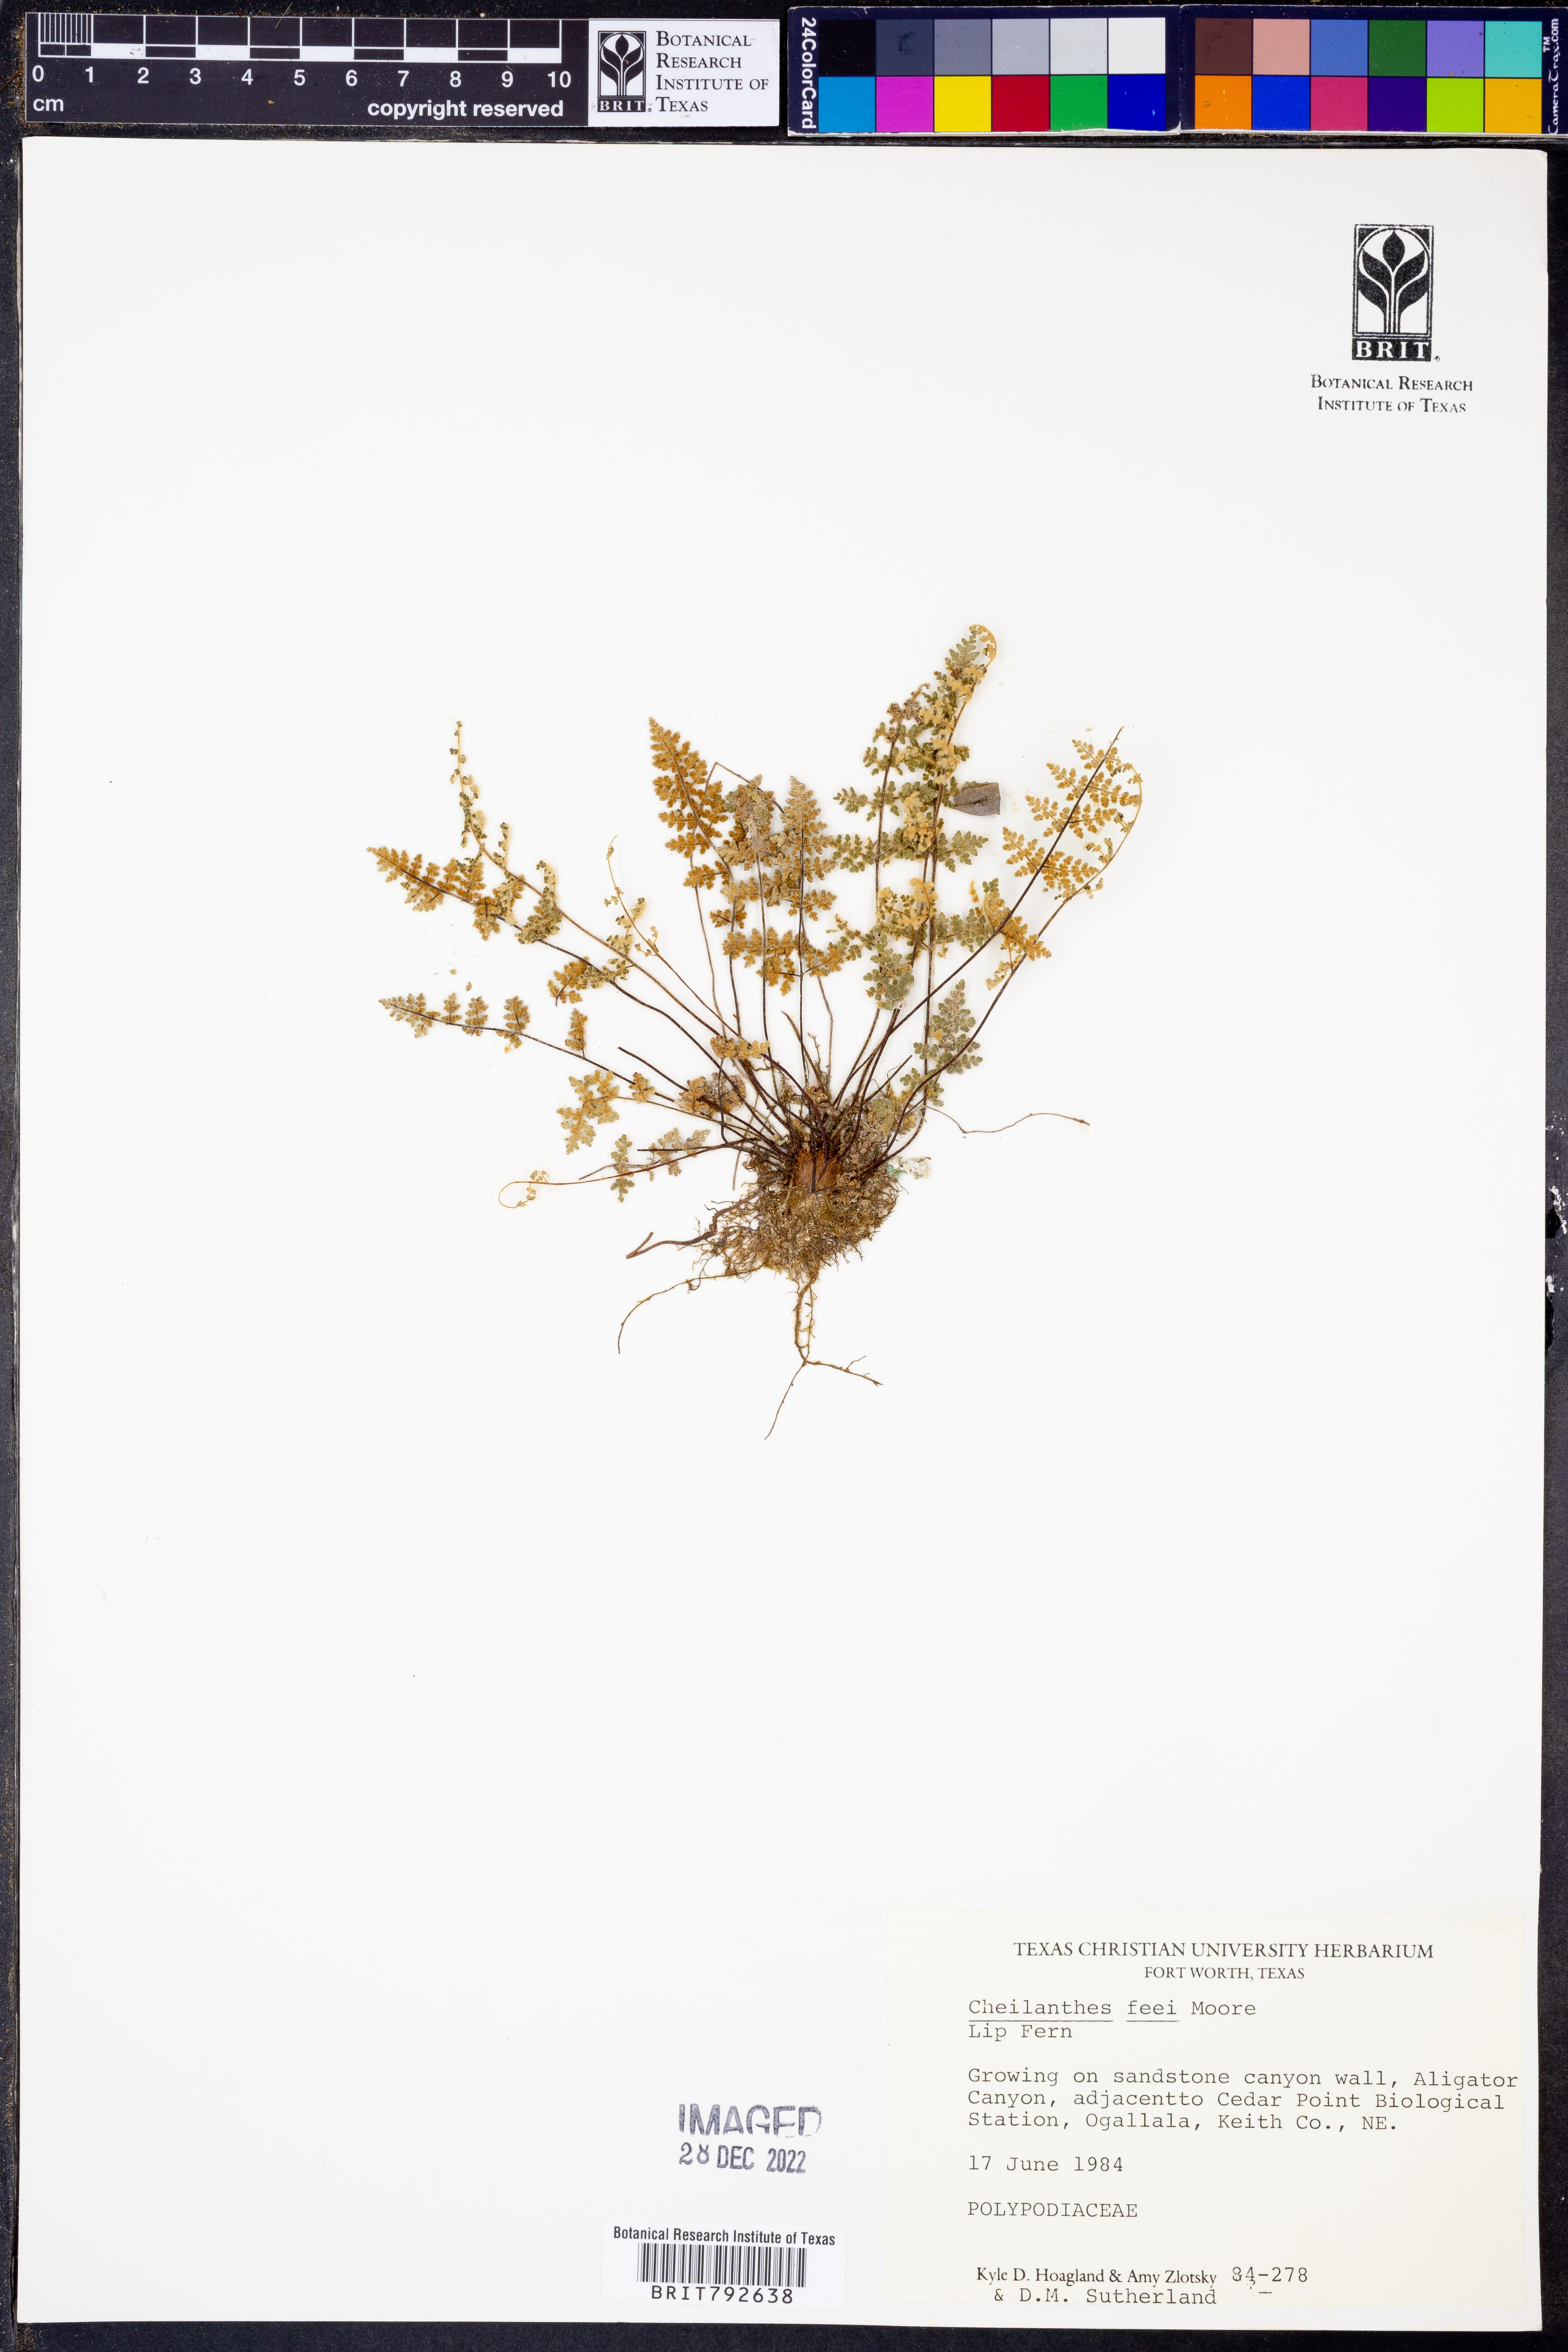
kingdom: Plantae
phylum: Tracheophyta
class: Polypodiopsida
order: Polypodiales
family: Pteridaceae
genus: Myriopteris
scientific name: Myriopteris gracilis
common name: Fee's lip fern
